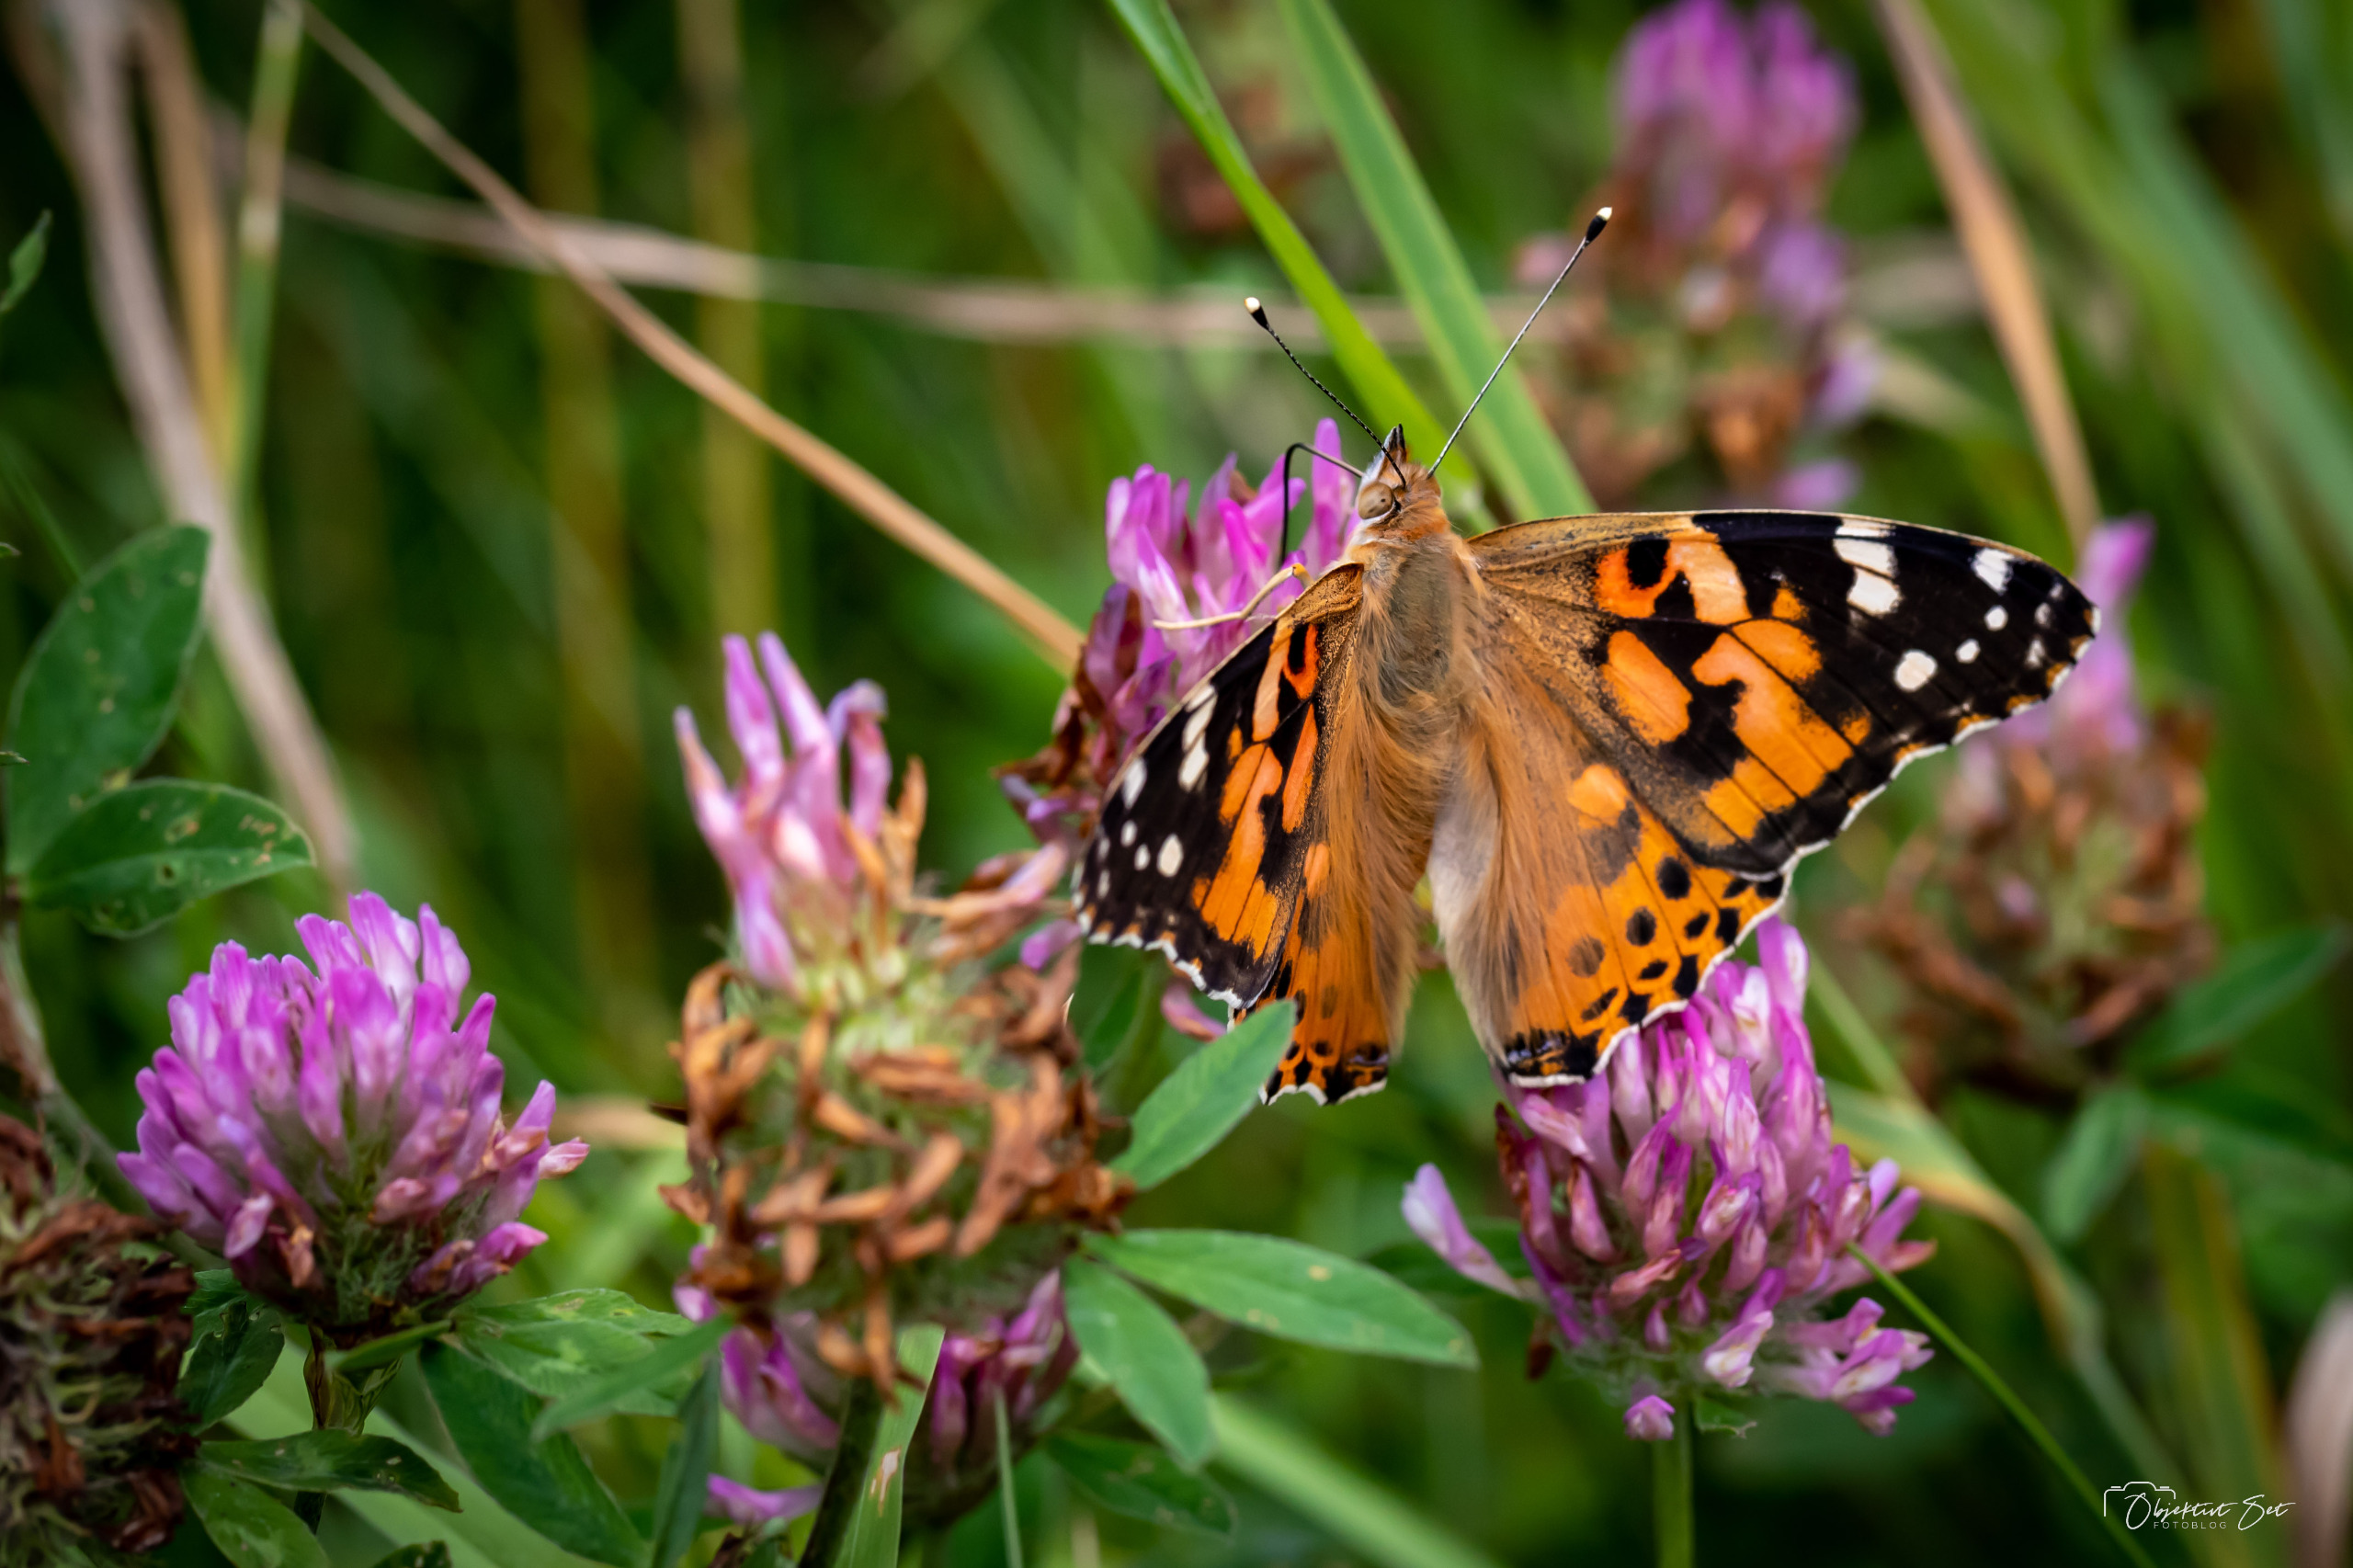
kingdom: Animalia
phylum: Arthropoda
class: Insecta
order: Lepidoptera
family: Nymphalidae
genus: Vanessa
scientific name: Vanessa cardui
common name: Tidselsommerfugl
